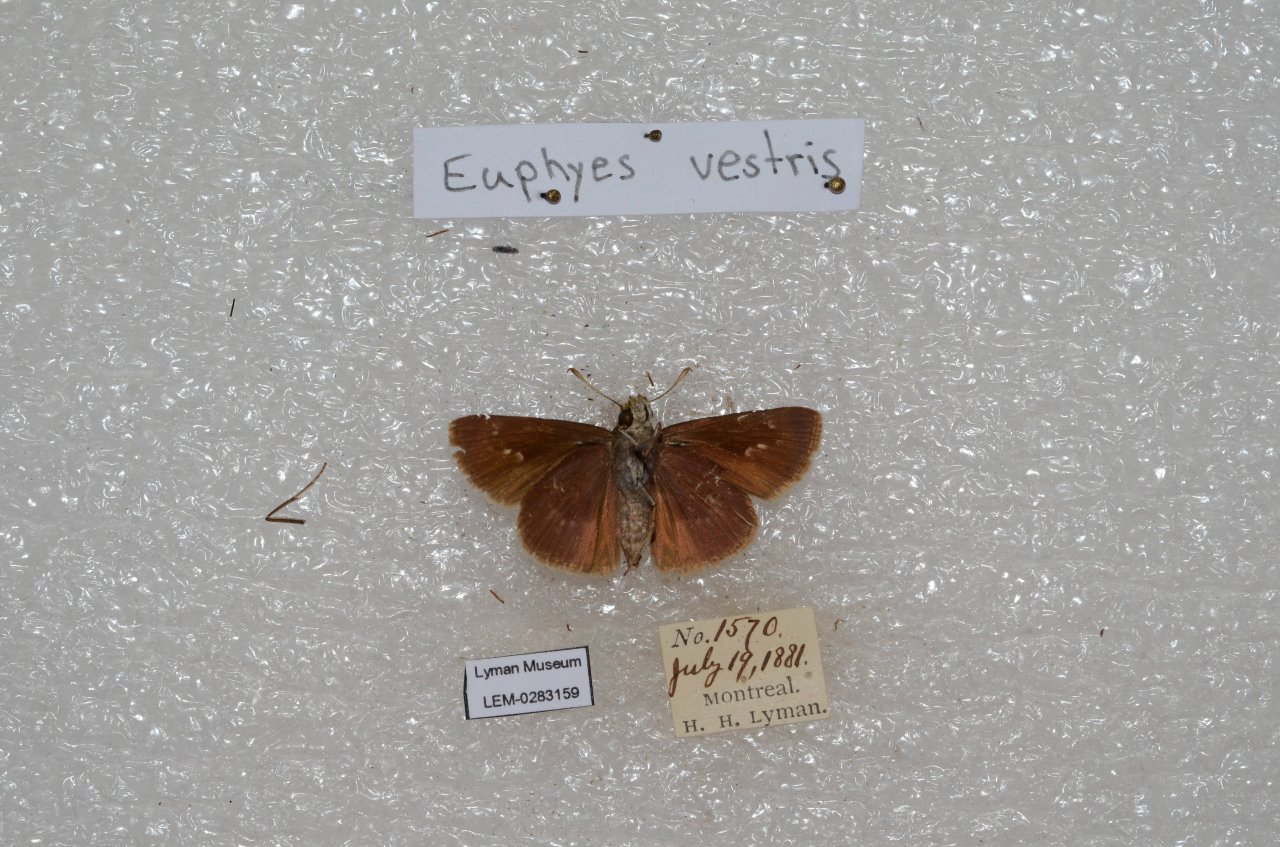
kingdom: Animalia
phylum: Arthropoda
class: Insecta
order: Lepidoptera
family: Hesperiidae
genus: Euphyes
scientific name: Euphyes vestris
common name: Dun Skipper
